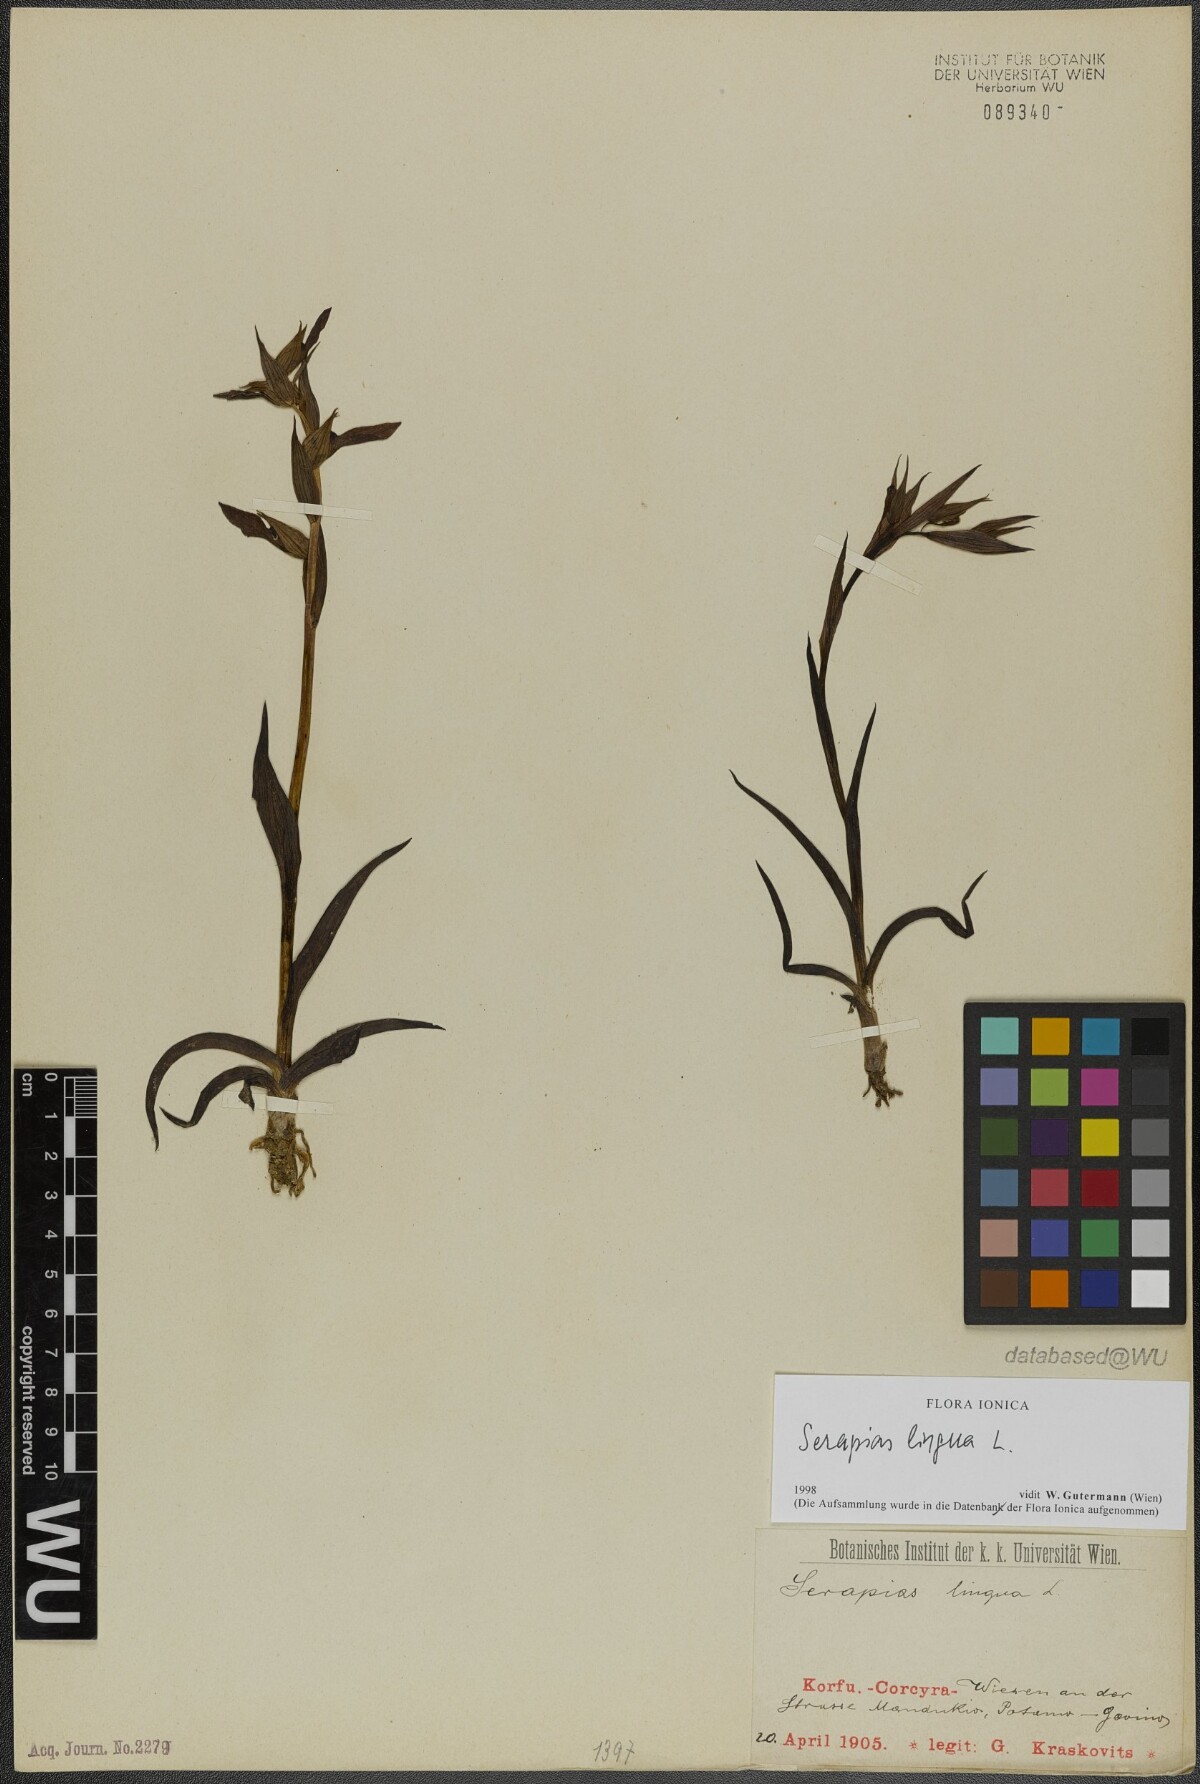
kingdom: Plantae
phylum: Tracheophyta
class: Liliopsida
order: Asparagales
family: Orchidaceae
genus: Serapias
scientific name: Serapias lingua
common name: Tongue-orchid
